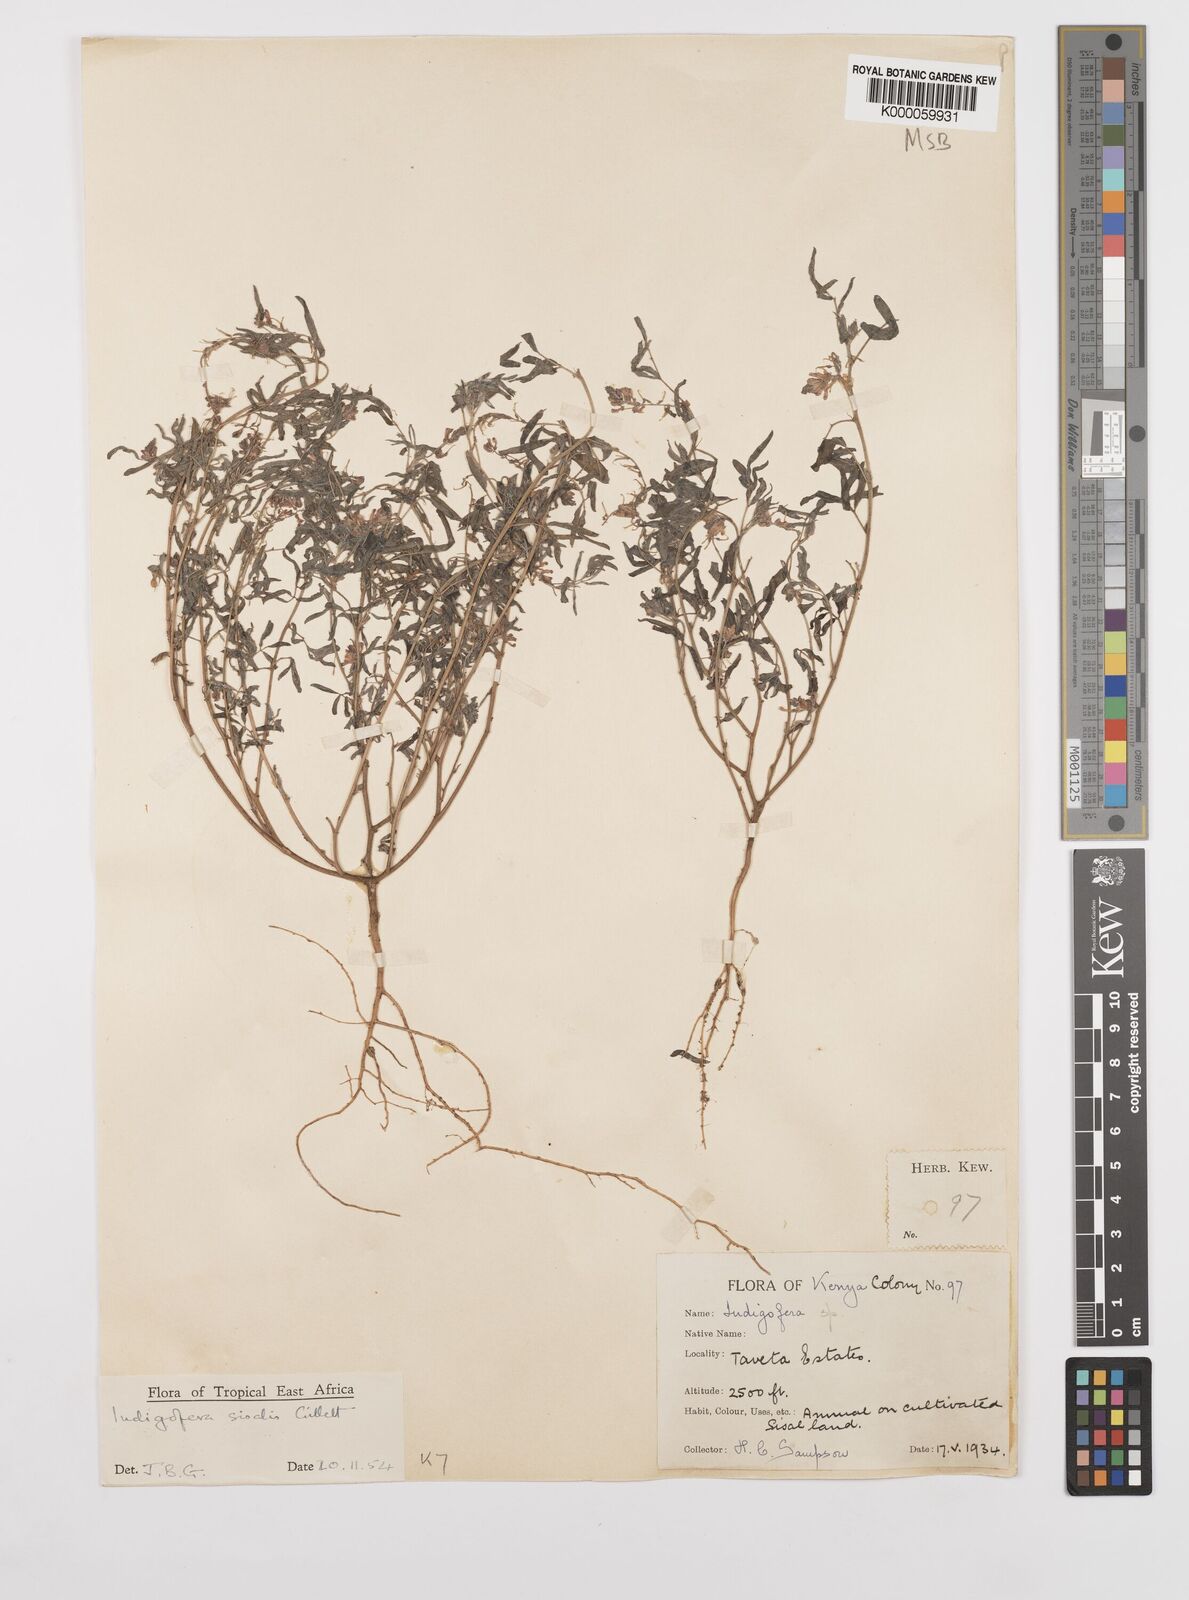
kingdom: Plantae
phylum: Tracheophyta
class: Magnoliopsida
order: Fabales
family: Fabaceae
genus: Indigofera
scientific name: Indigofera sisalis
